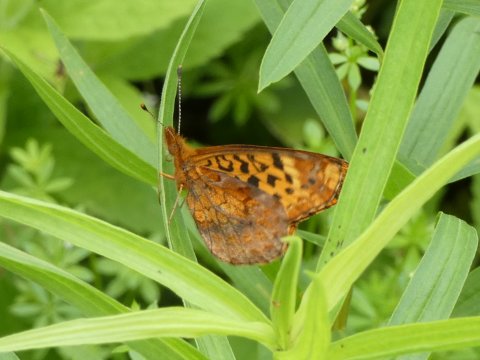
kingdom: Animalia
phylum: Arthropoda
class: Insecta
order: Lepidoptera
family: Nymphalidae
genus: Clossiana
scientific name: Clossiana toddi
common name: Meadow Fritillary
